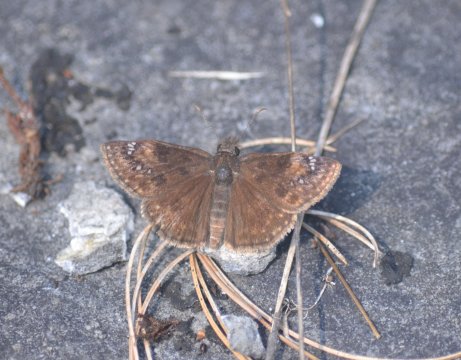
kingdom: Animalia
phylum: Arthropoda
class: Insecta
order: Lepidoptera
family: Hesperiidae
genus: Gesta
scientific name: Gesta
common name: Wild Indigo Duskywing
